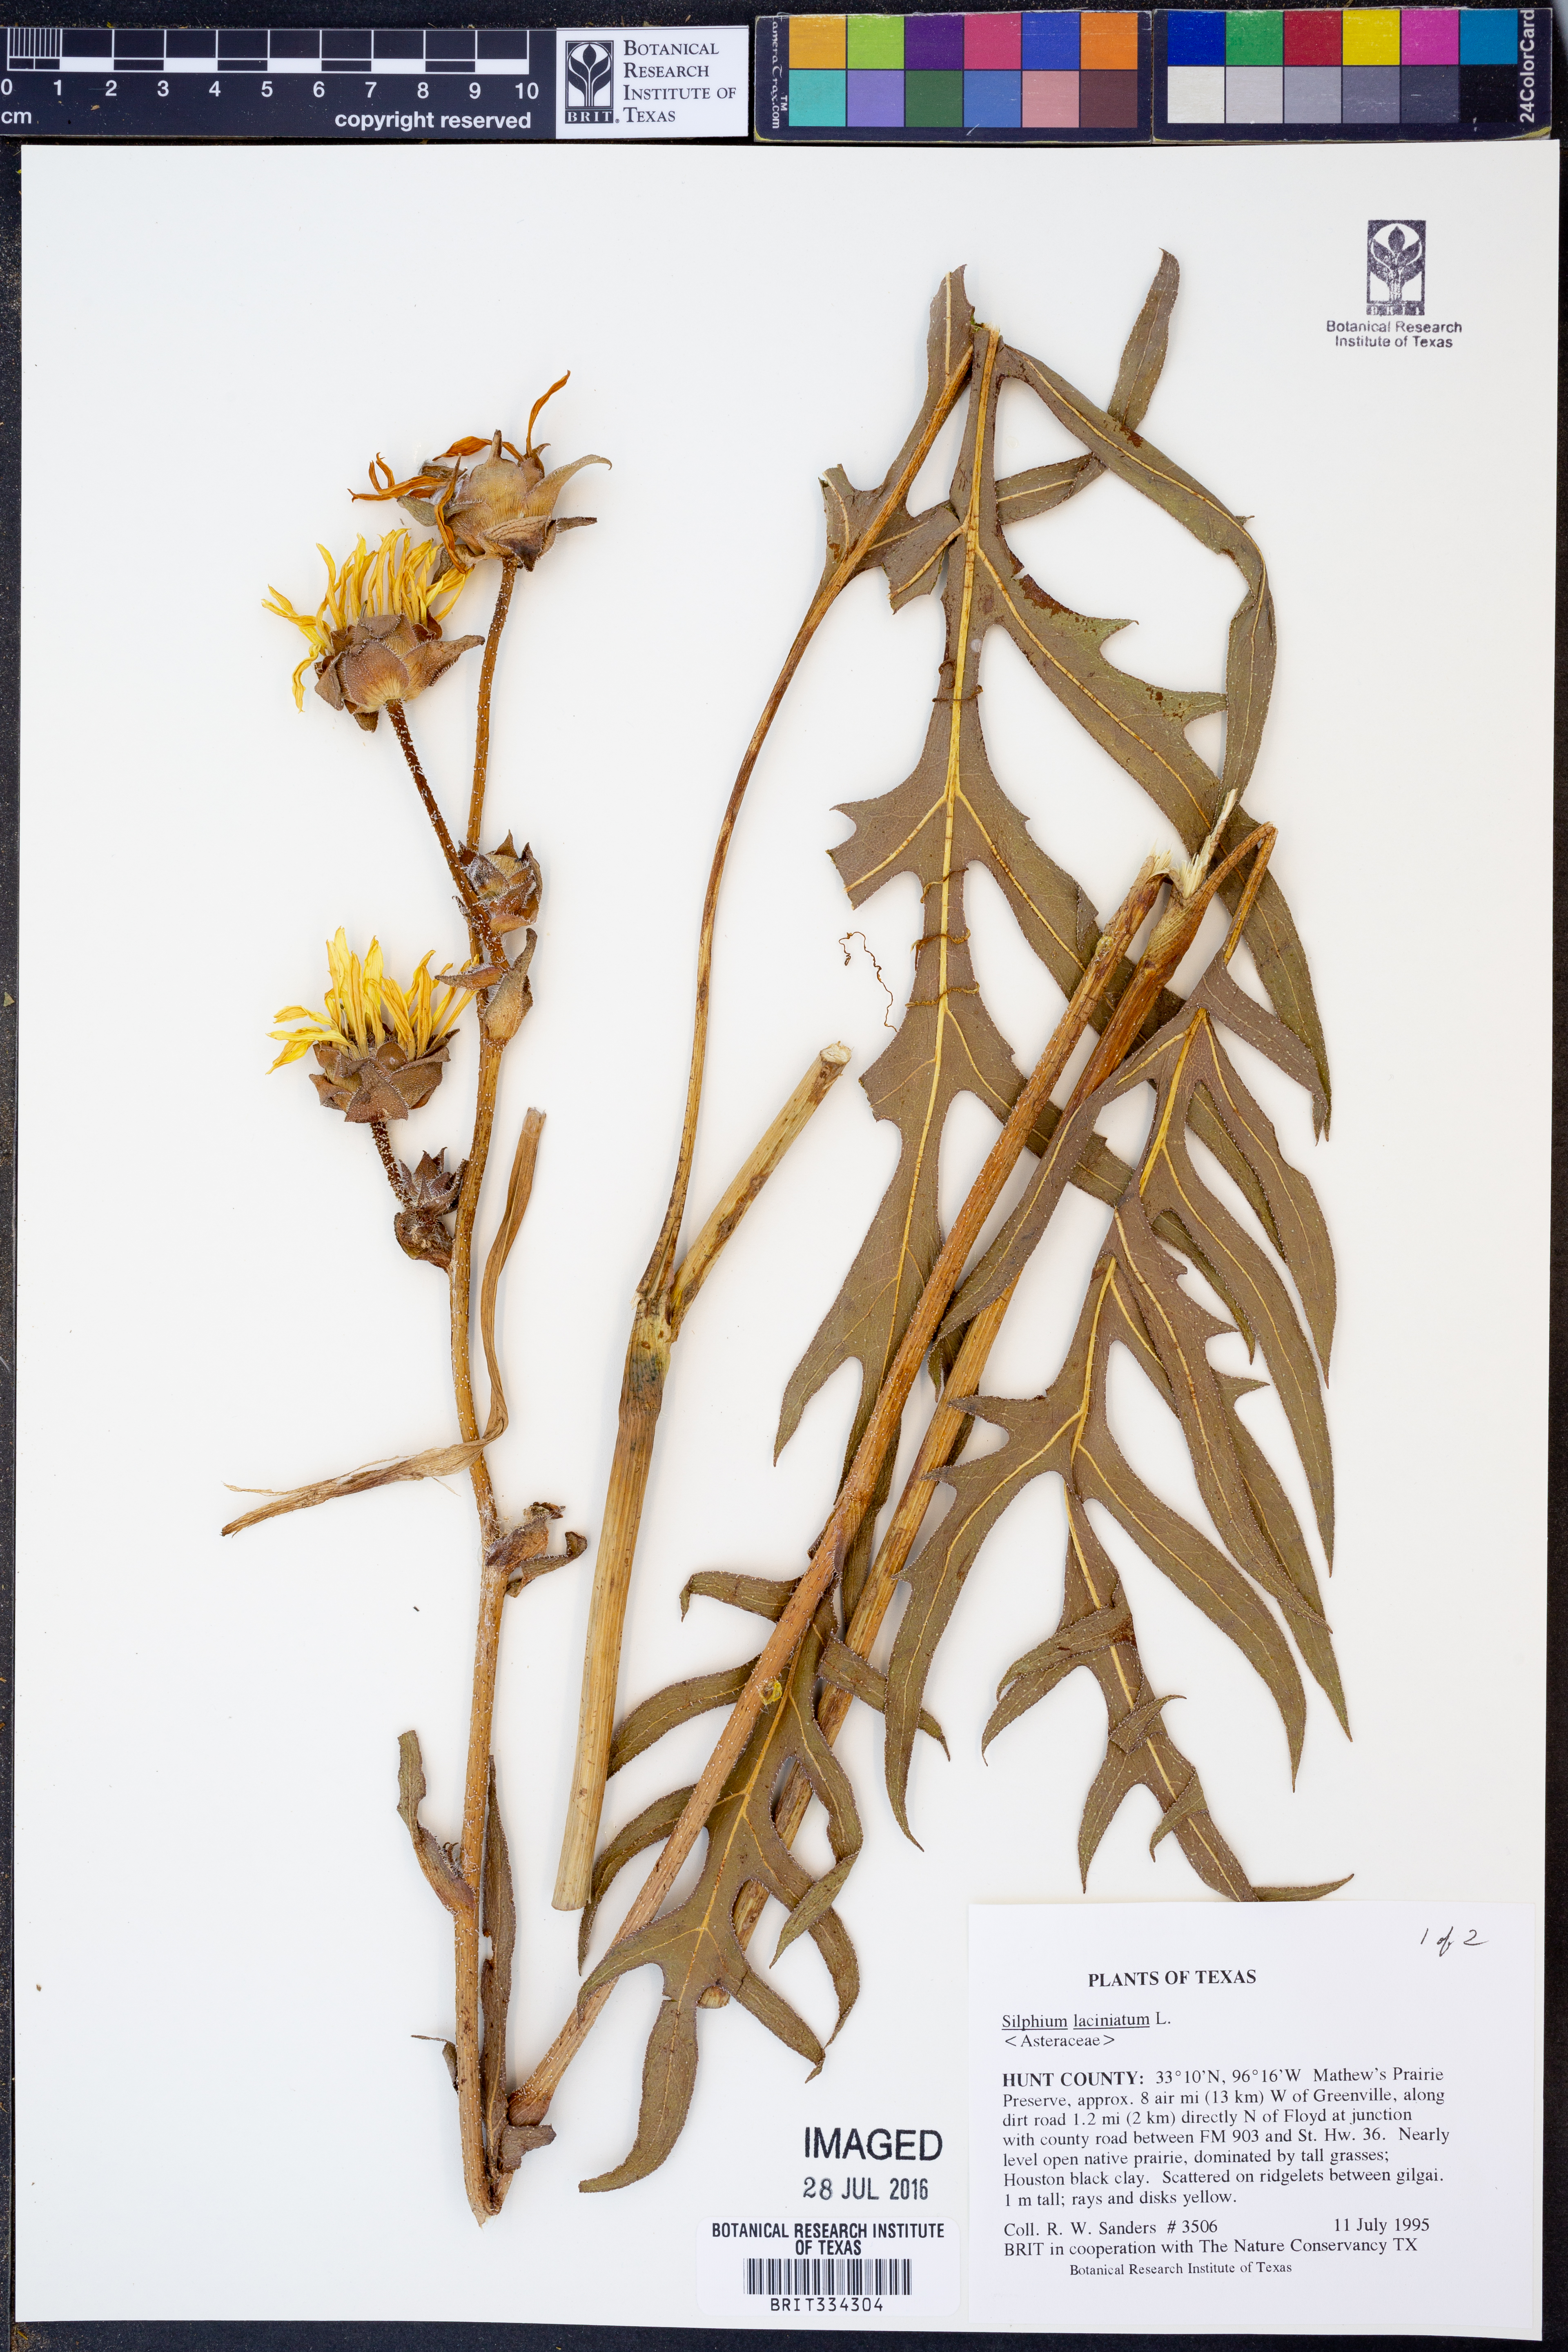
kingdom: Plantae
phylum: Tracheophyta
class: Magnoliopsida
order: Asterales
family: Asteraceae
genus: Silphium
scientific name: Silphium laciniatum
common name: Polarplant
